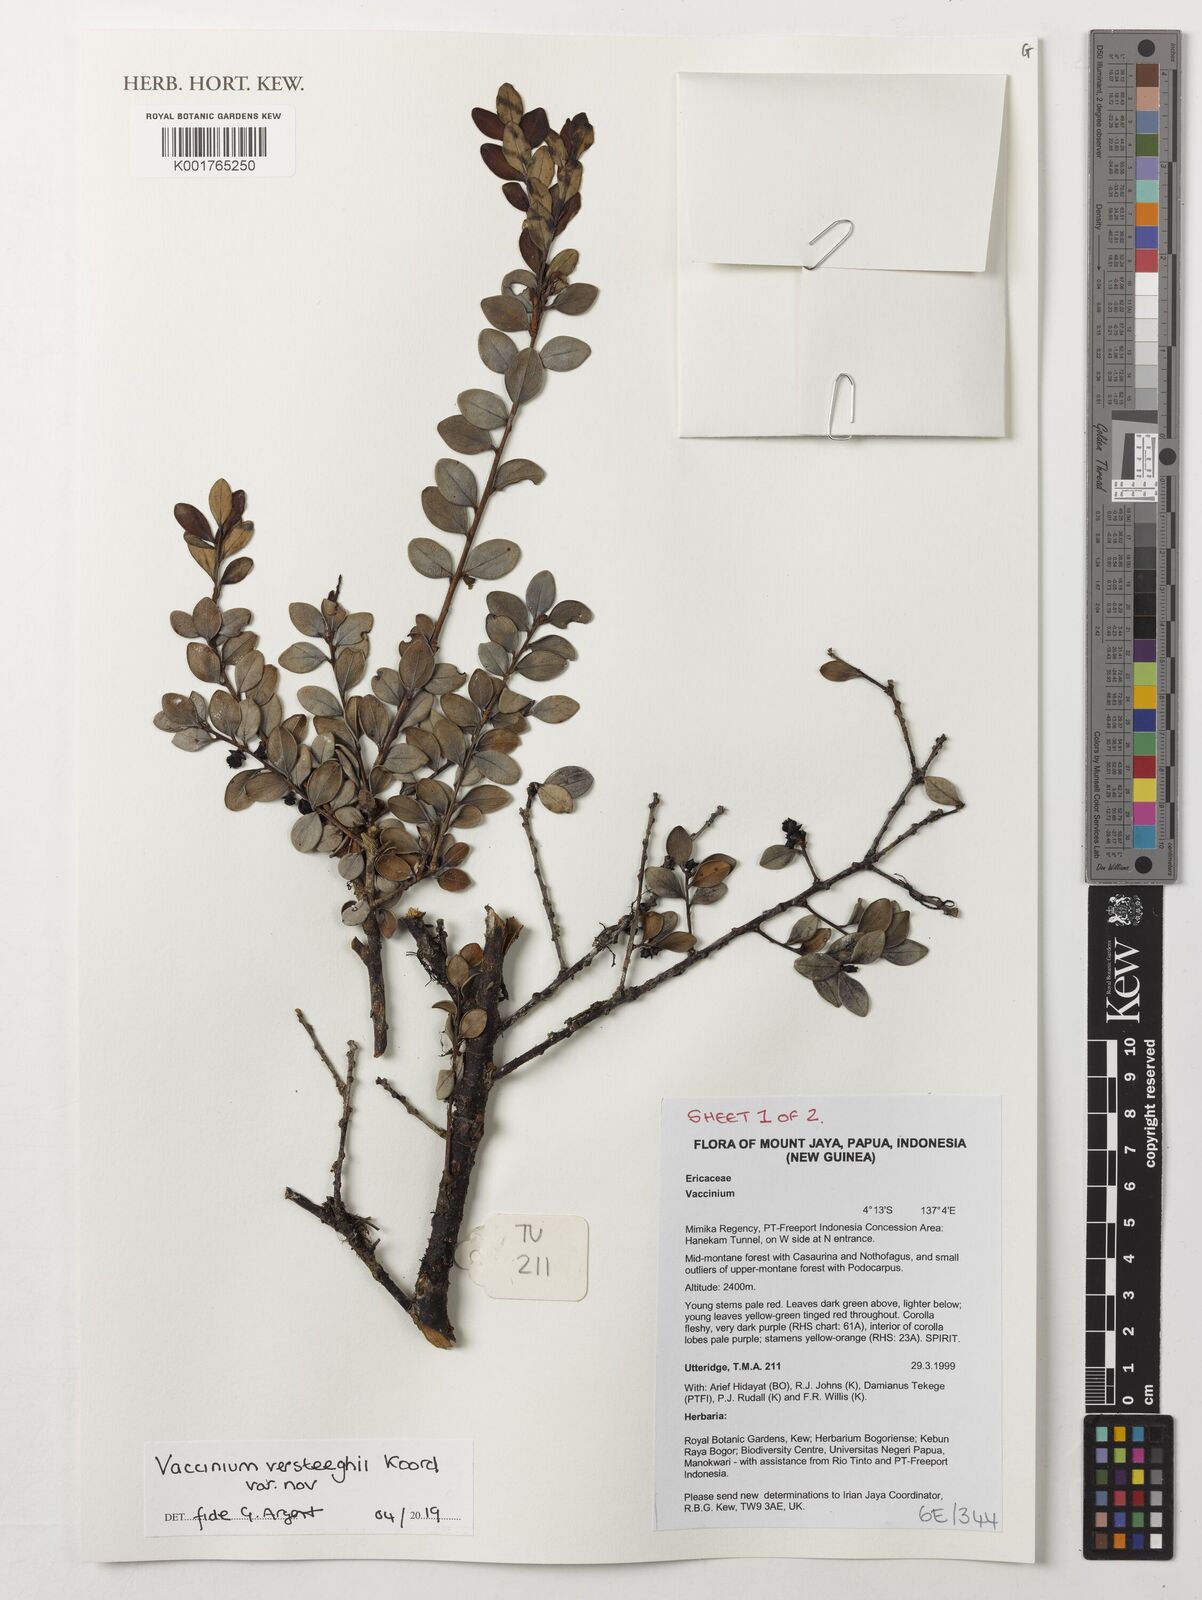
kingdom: Plantae
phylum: Tracheophyta
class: Magnoliopsida
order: Ericales
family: Ericaceae
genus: Vaccinium
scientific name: Vaccinium versteegii
